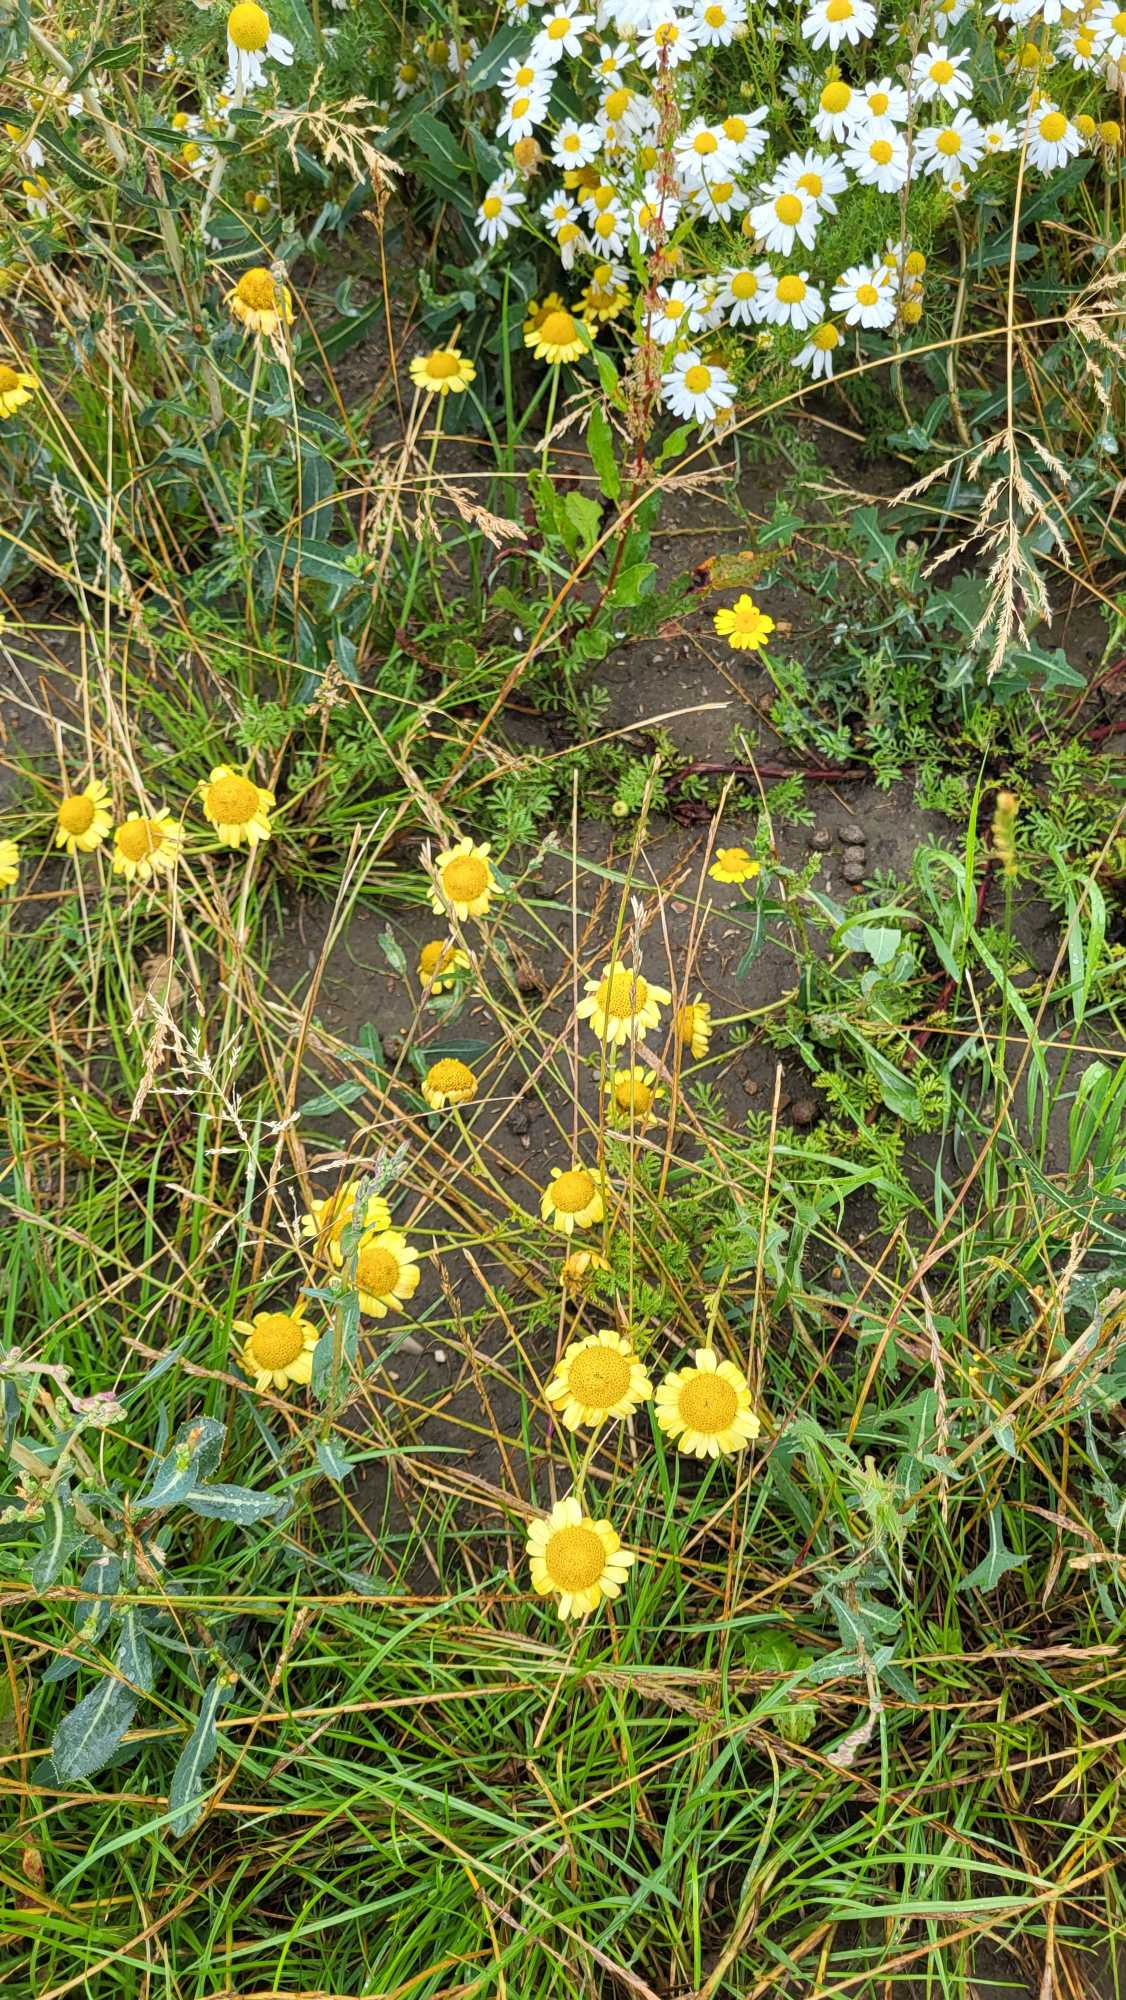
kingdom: Plantae
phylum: Tracheophyta
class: Magnoliopsida
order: Asterales
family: Asteraceae
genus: Cota
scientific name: Cota tinctoria
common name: Farve-gåseurt
